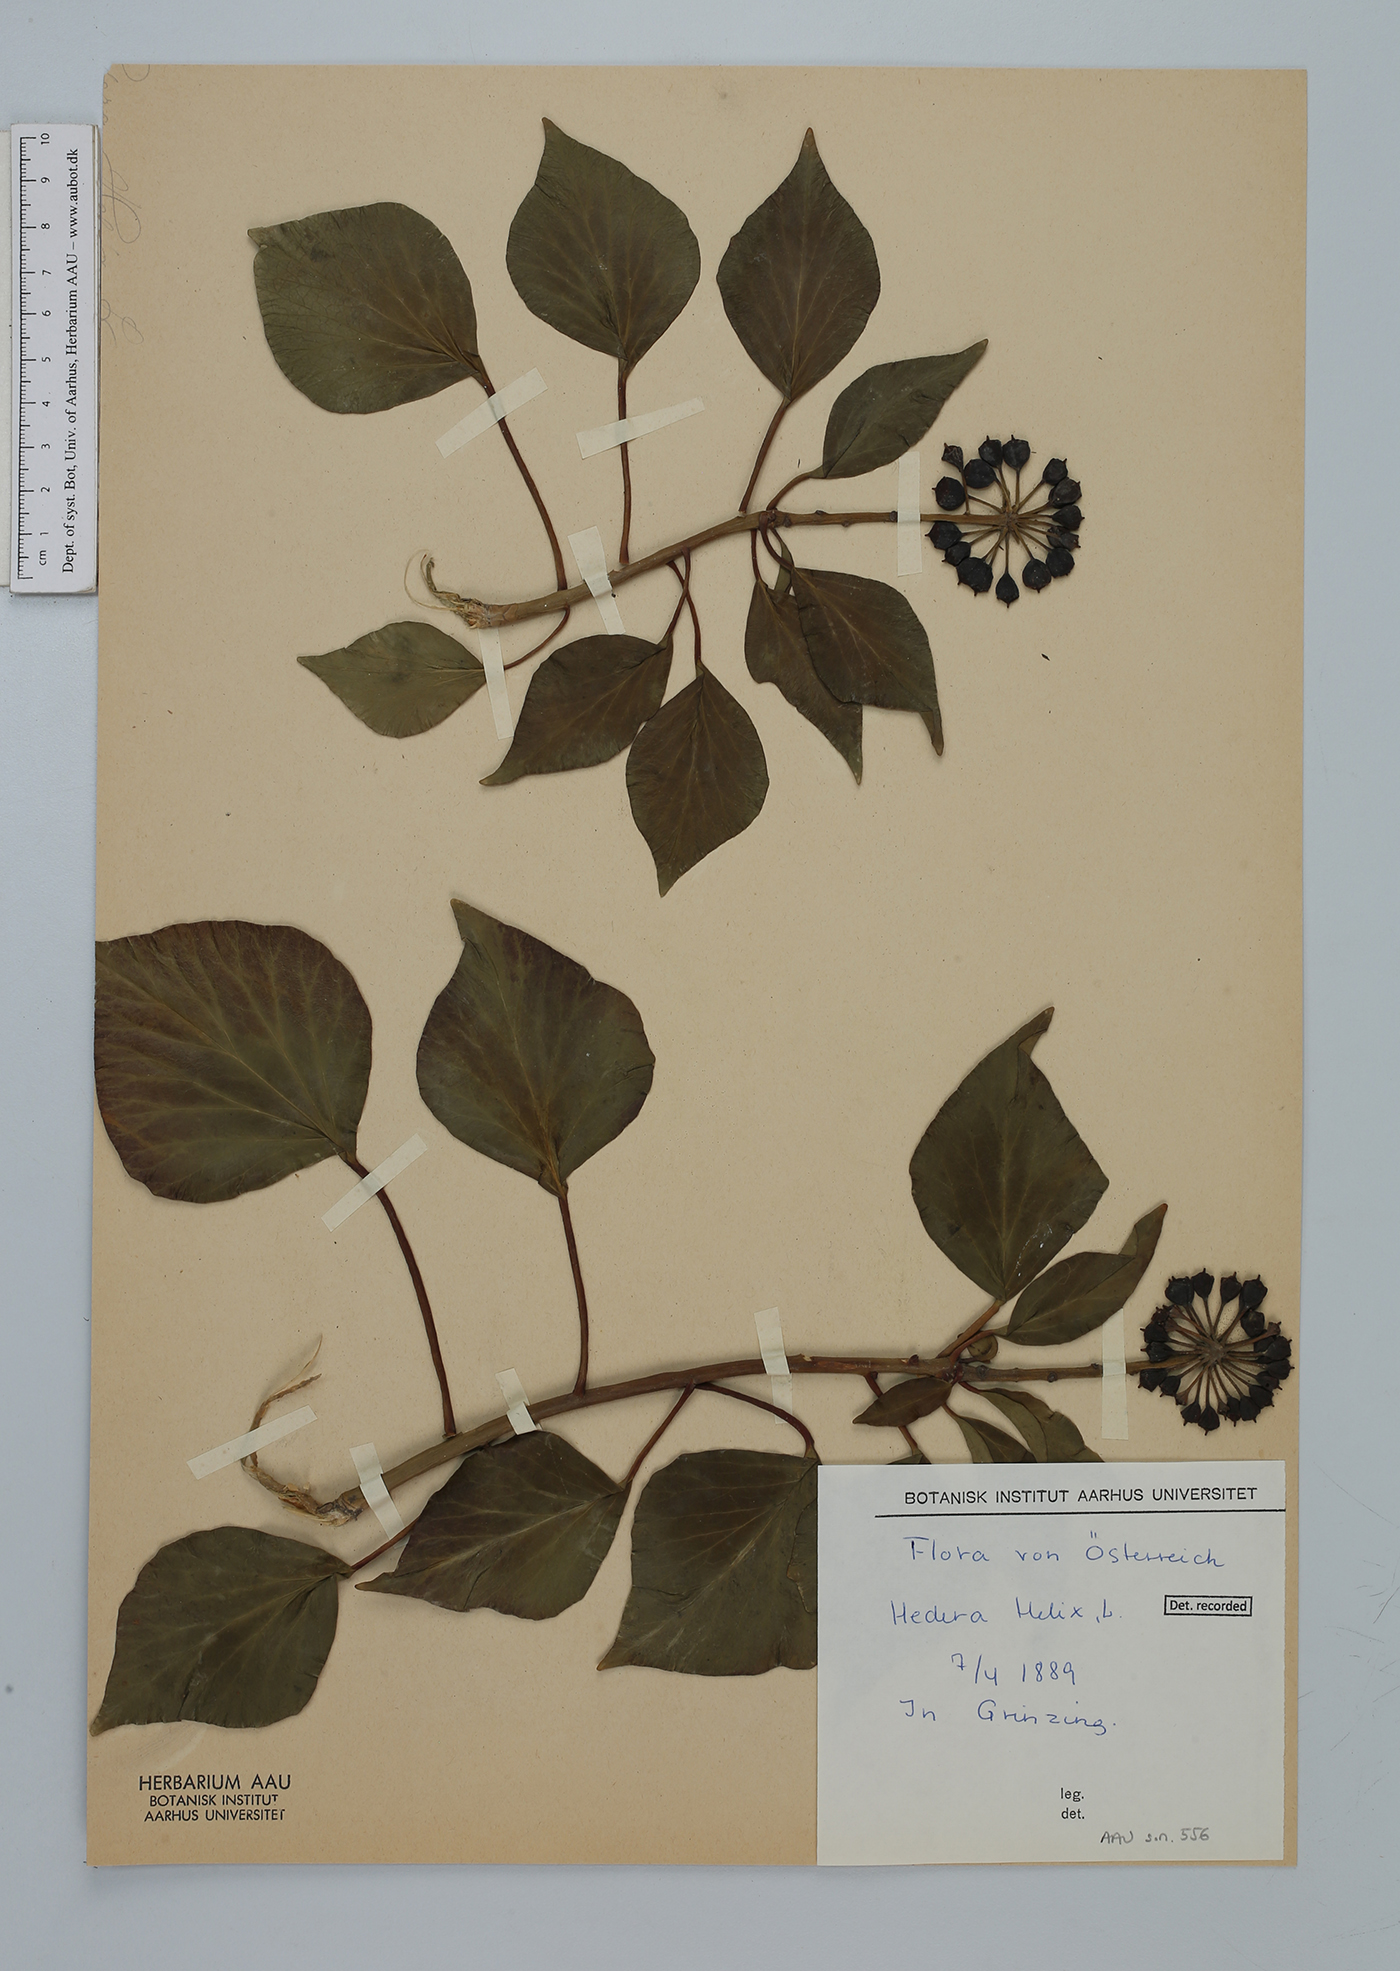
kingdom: Plantae
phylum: Tracheophyta
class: Magnoliopsida
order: Apiales
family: Araliaceae
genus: Hedera
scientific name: Hedera helix
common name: Ivy
